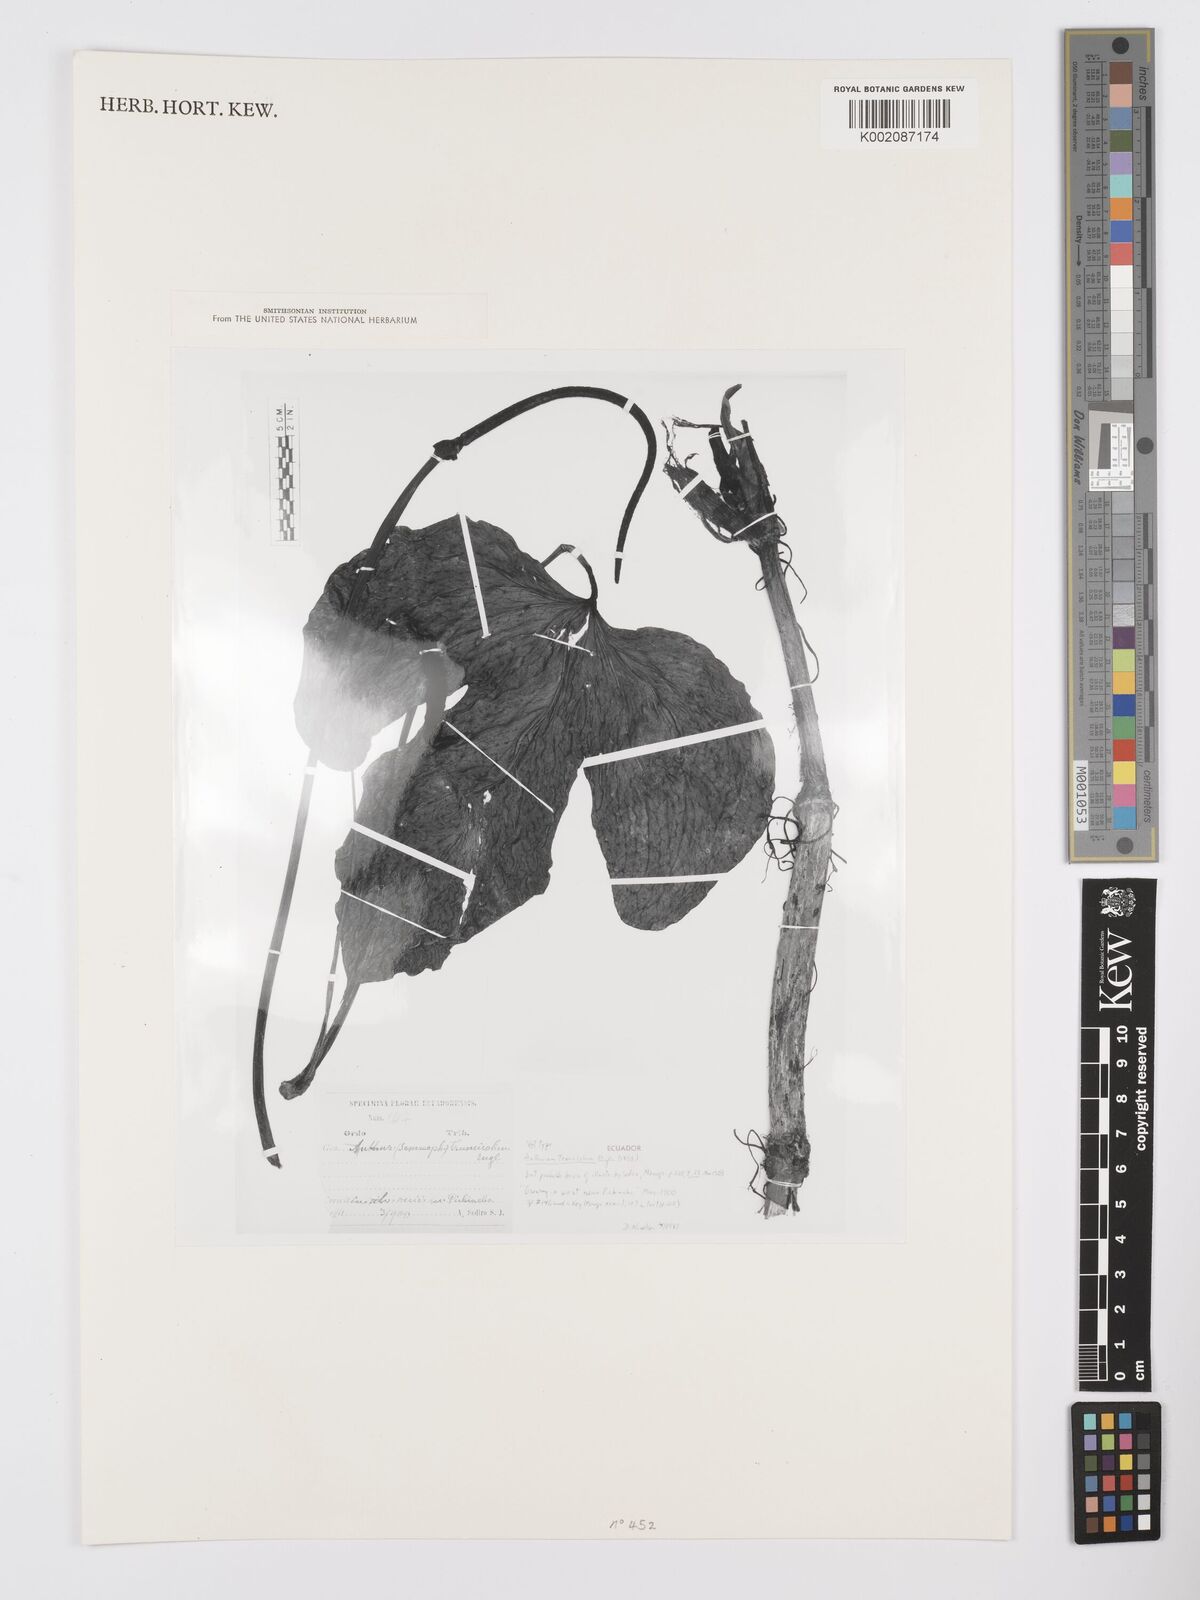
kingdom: Plantae
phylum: Tracheophyta
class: Liliopsida
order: Alismatales
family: Araceae
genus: Anthurium
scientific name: Anthurium truncicola
